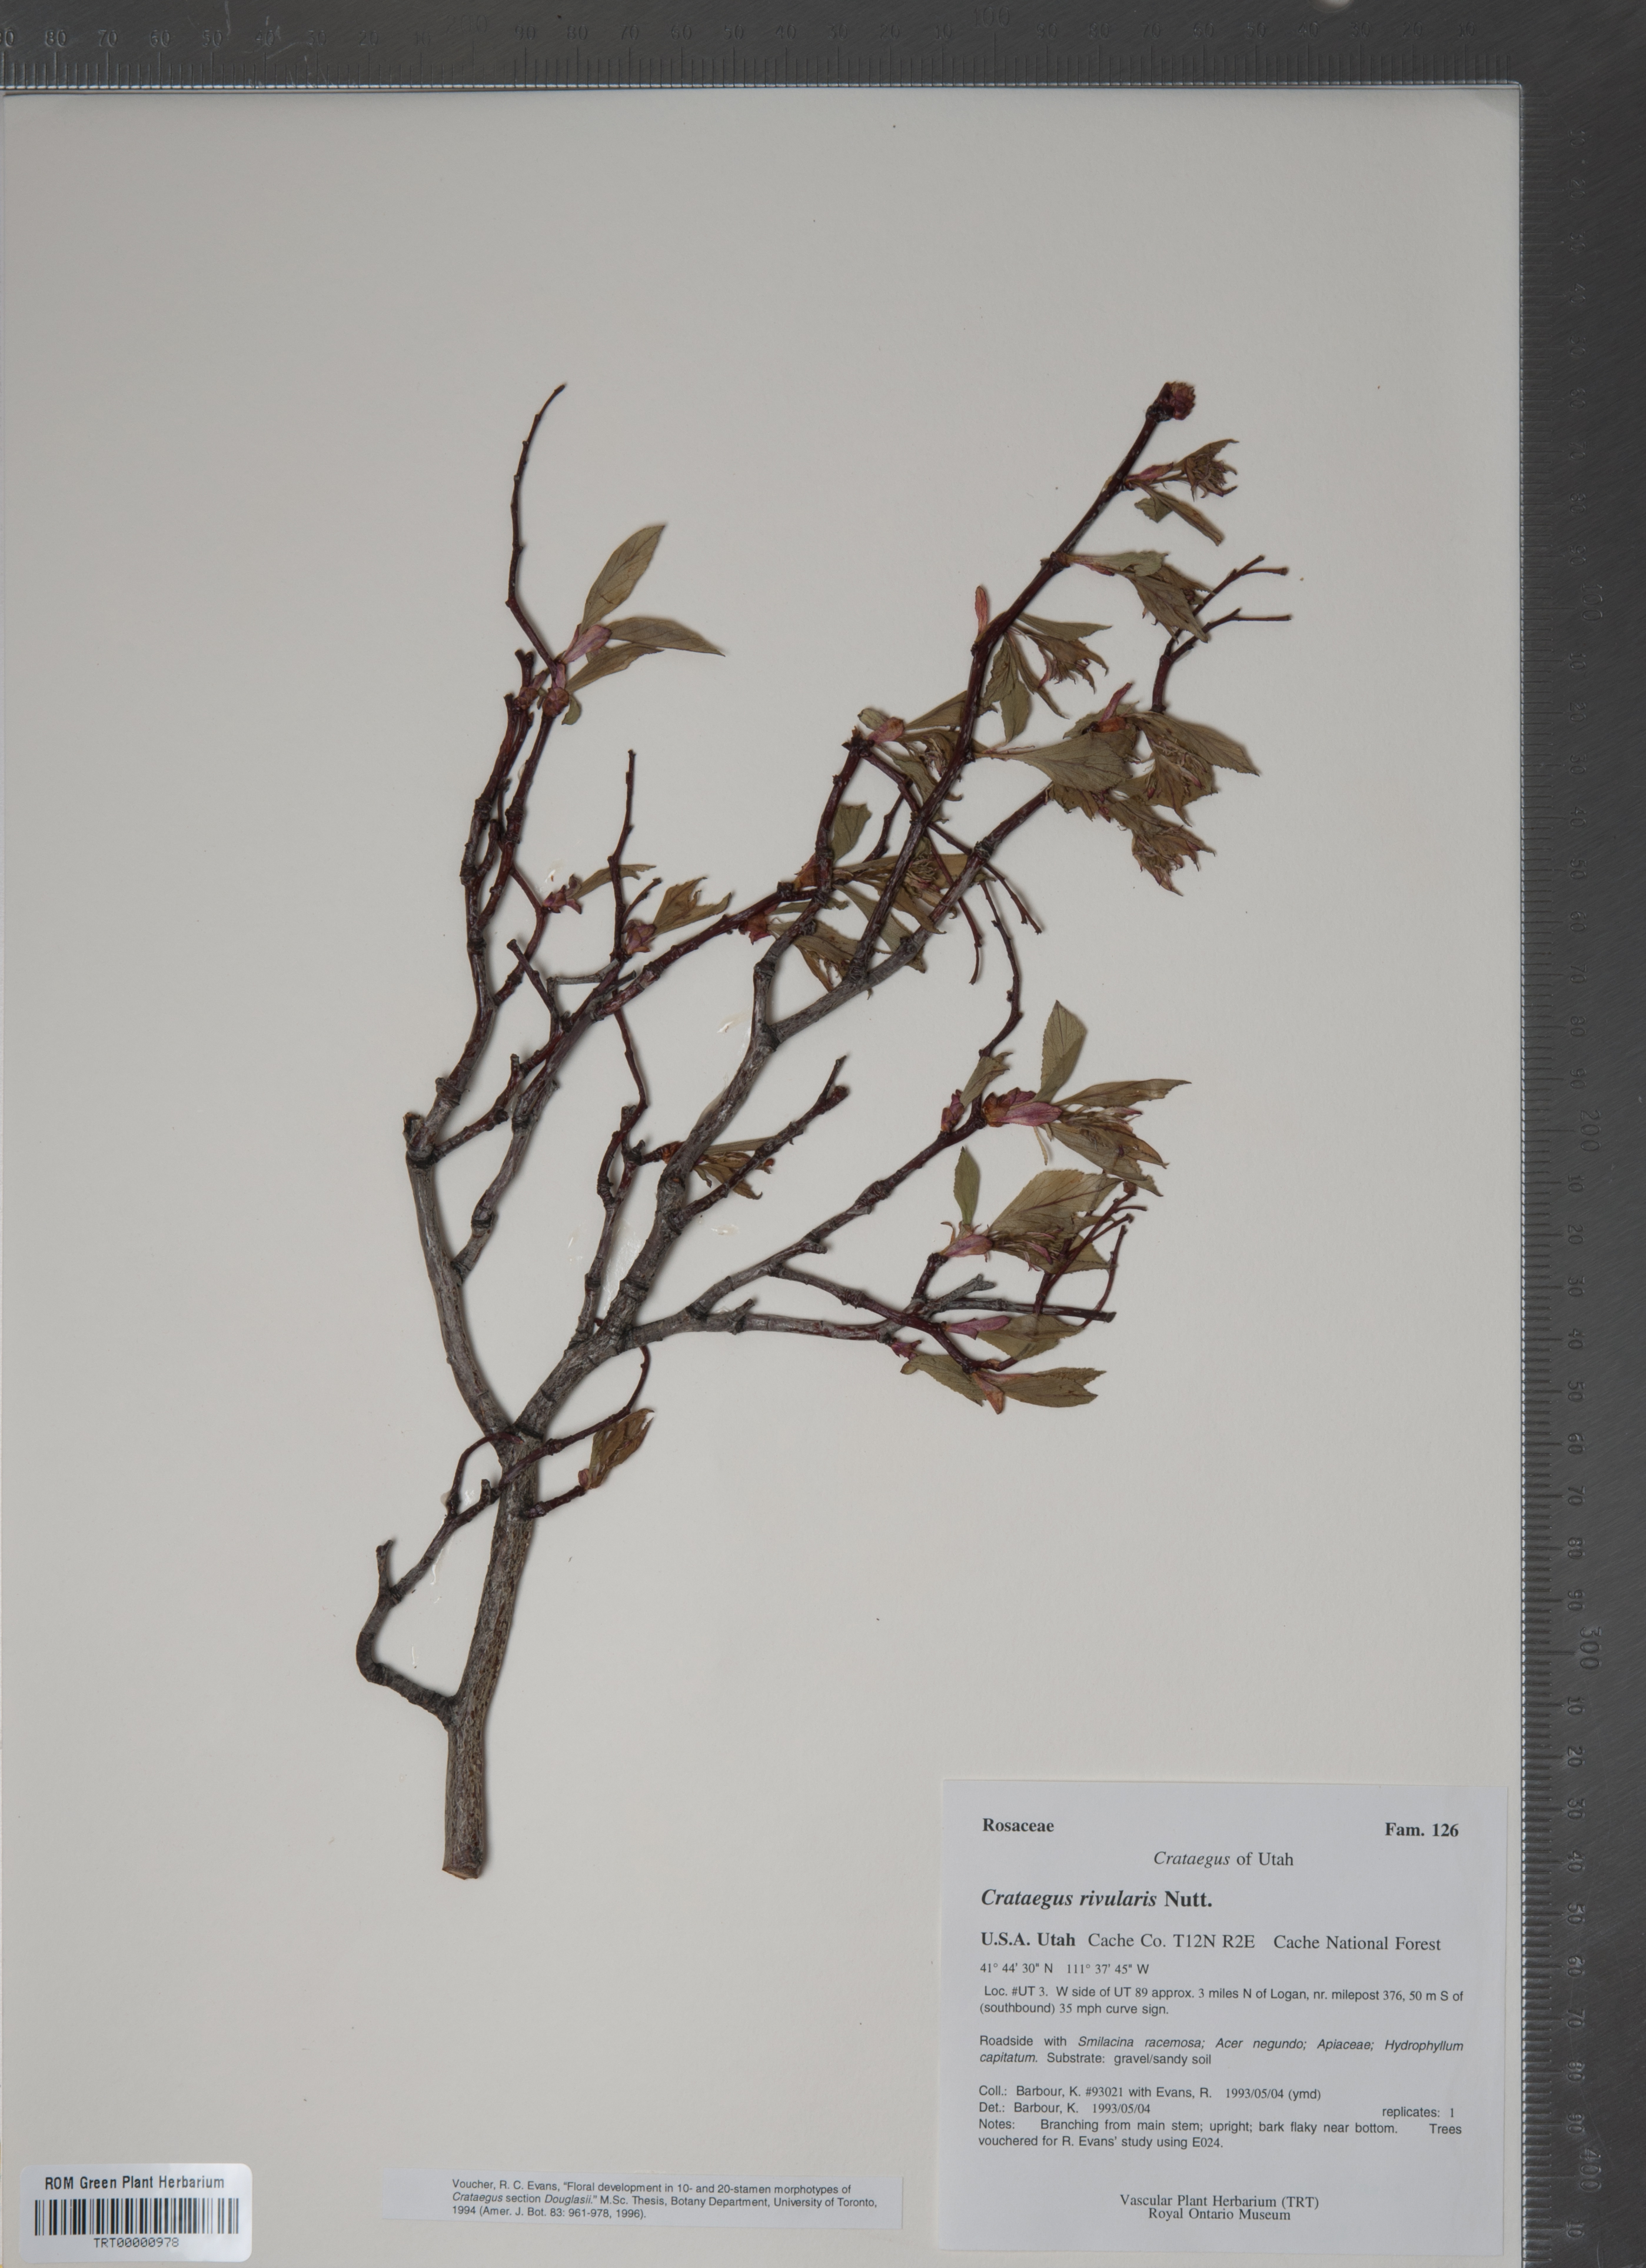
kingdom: Plantae
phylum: Tracheophyta
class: Magnoliopsida
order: Rosales
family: Rosaceae
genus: Crataegus
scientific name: Crataegus rivularis
